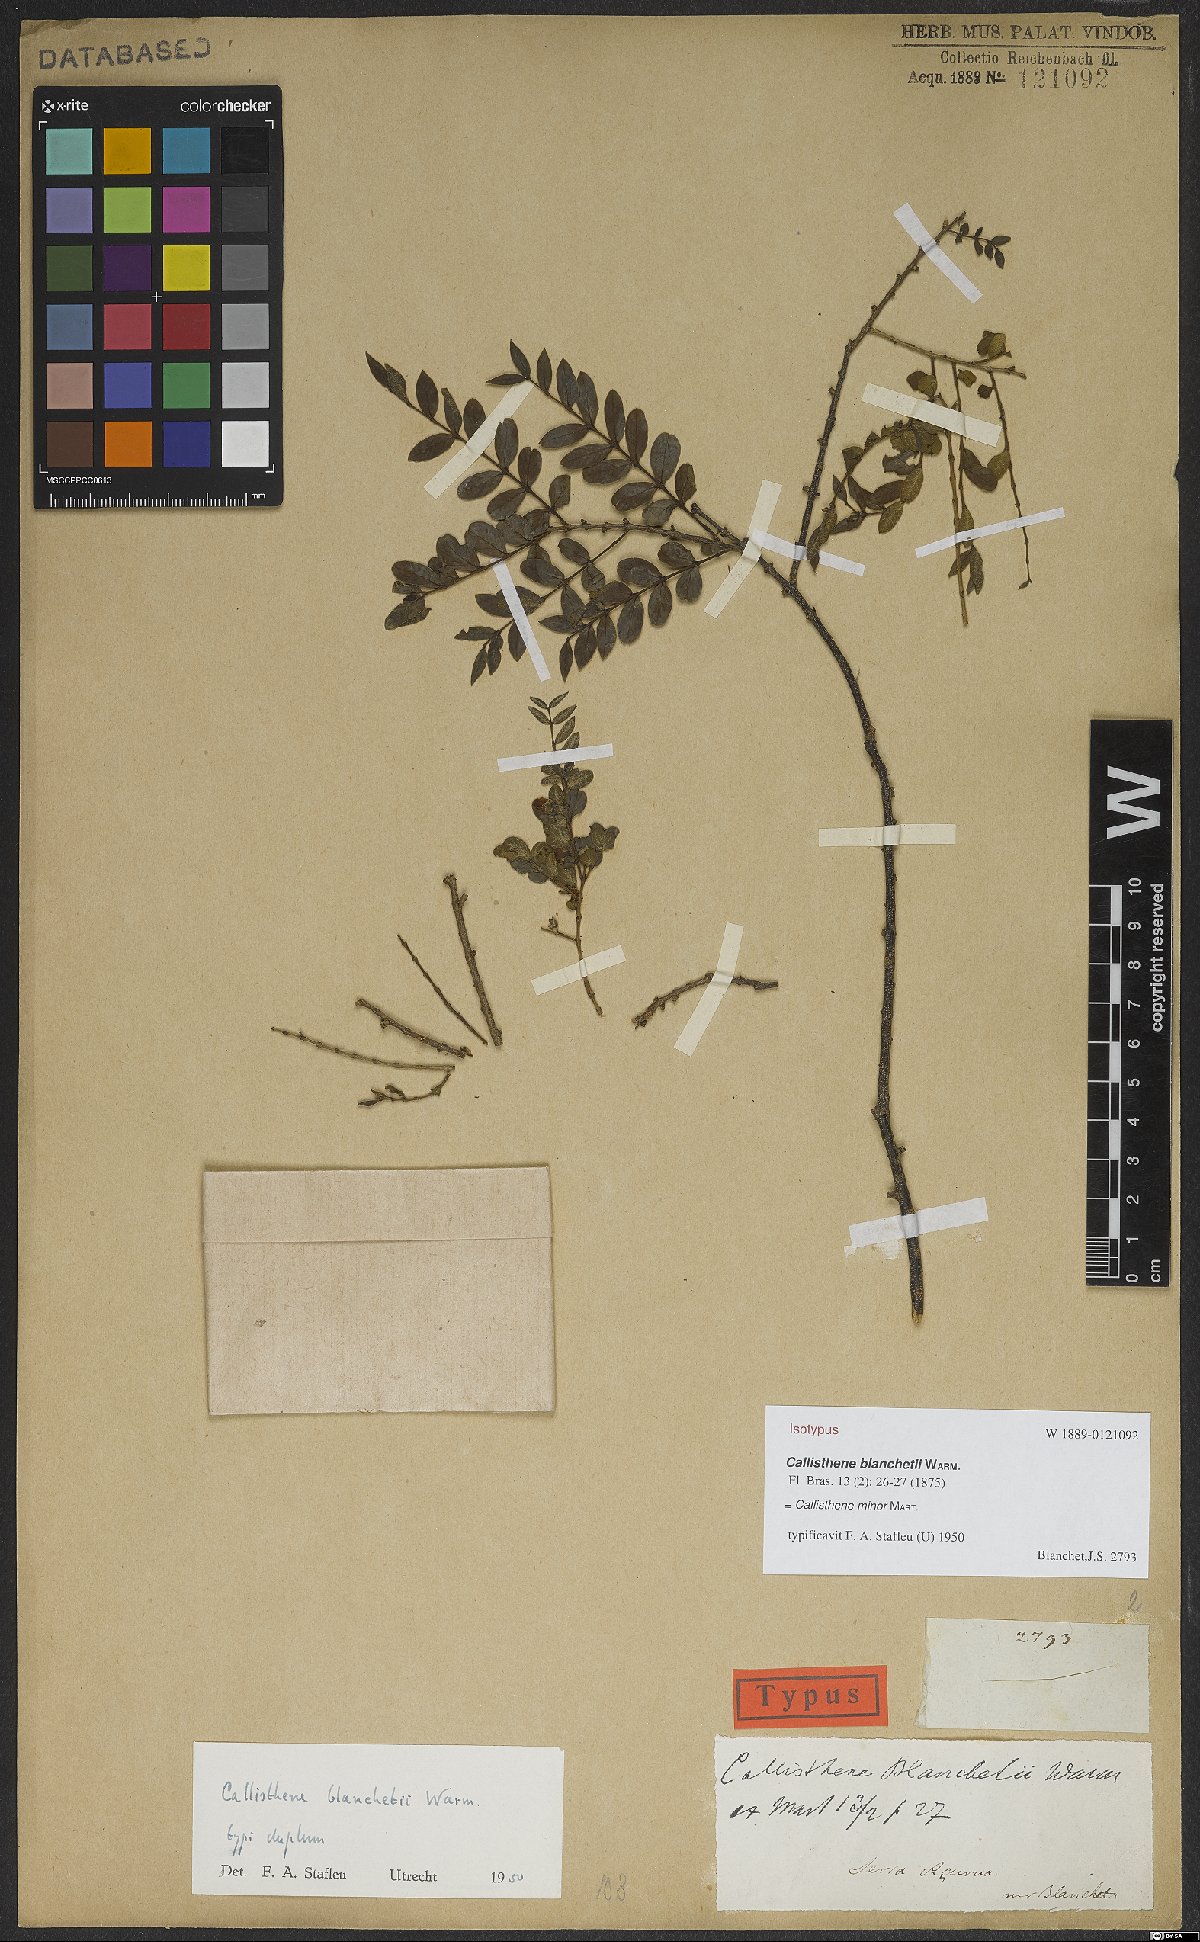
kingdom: Plantae
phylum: Tracheophyta
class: Magnoliopsida
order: Myrtales
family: Vochysiaceae
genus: Callisthene
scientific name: Callisthene minor
